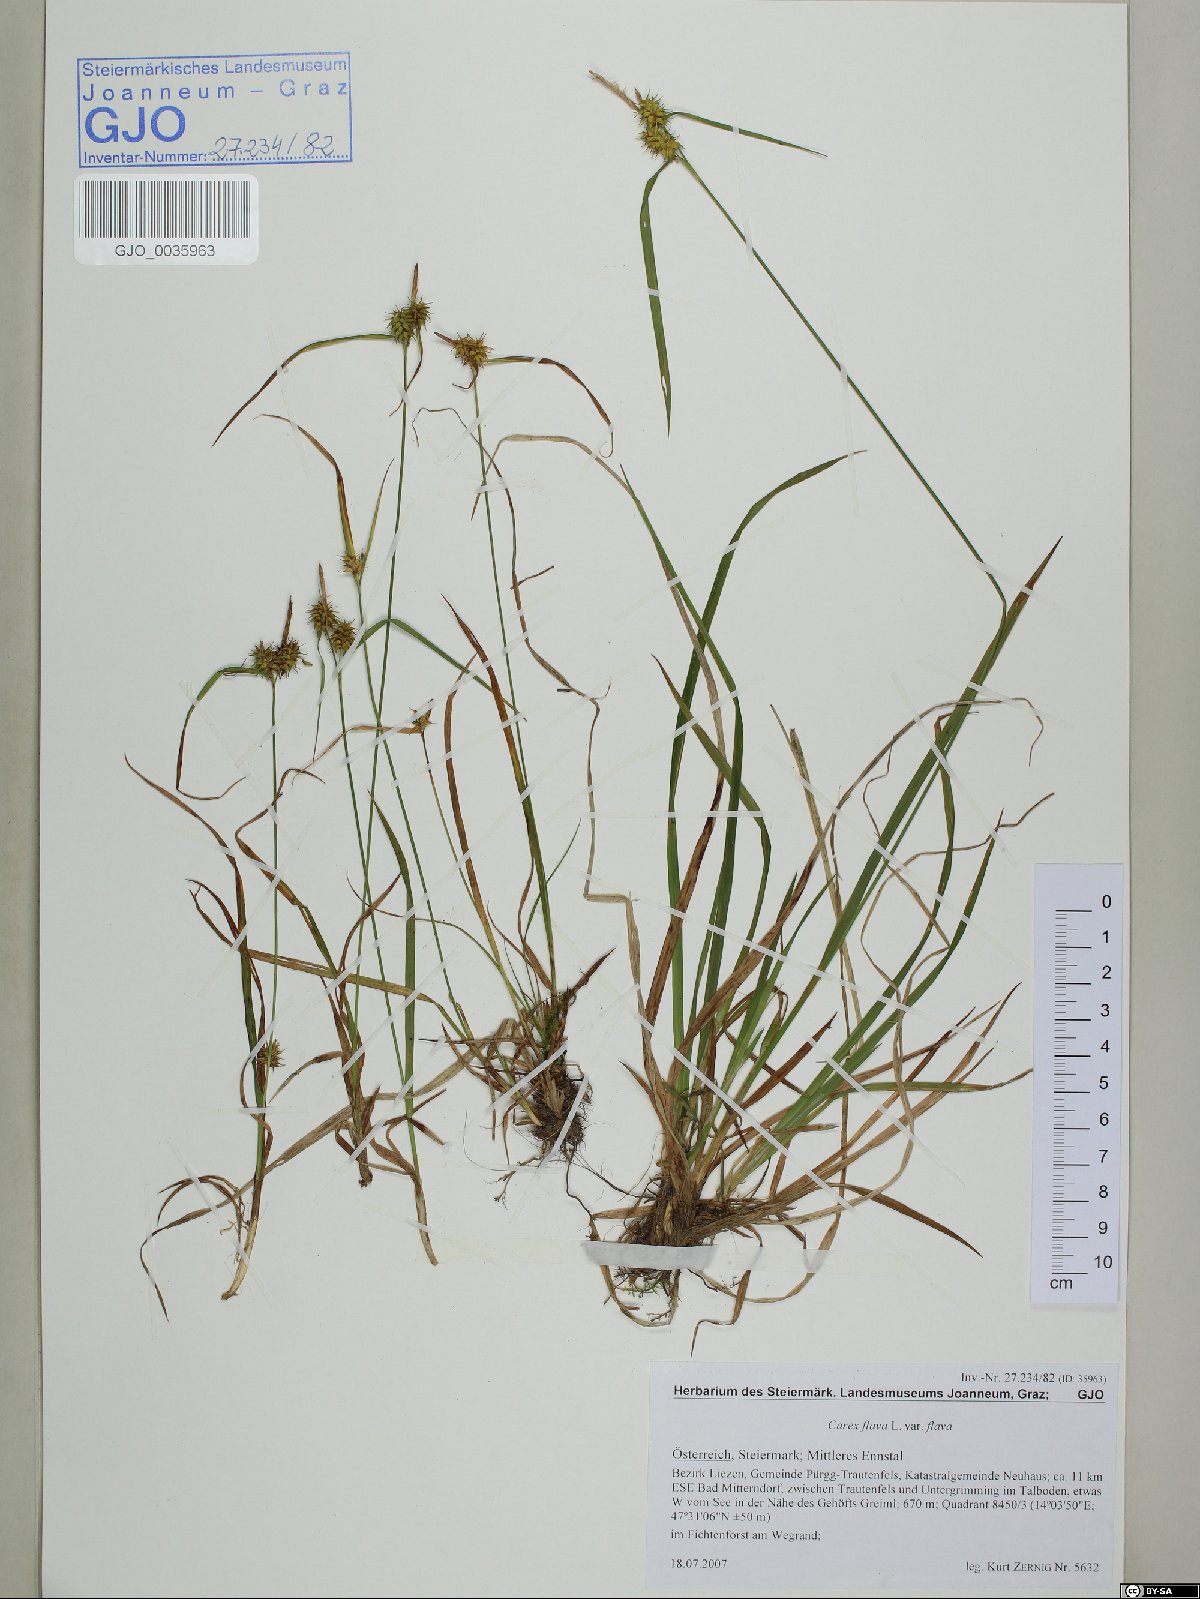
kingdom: Plantae
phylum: Tracheophyta
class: Liliopsida
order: Poales
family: Cyperaceae
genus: Carex
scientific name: Carex flava
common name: Large yellow-sedge
